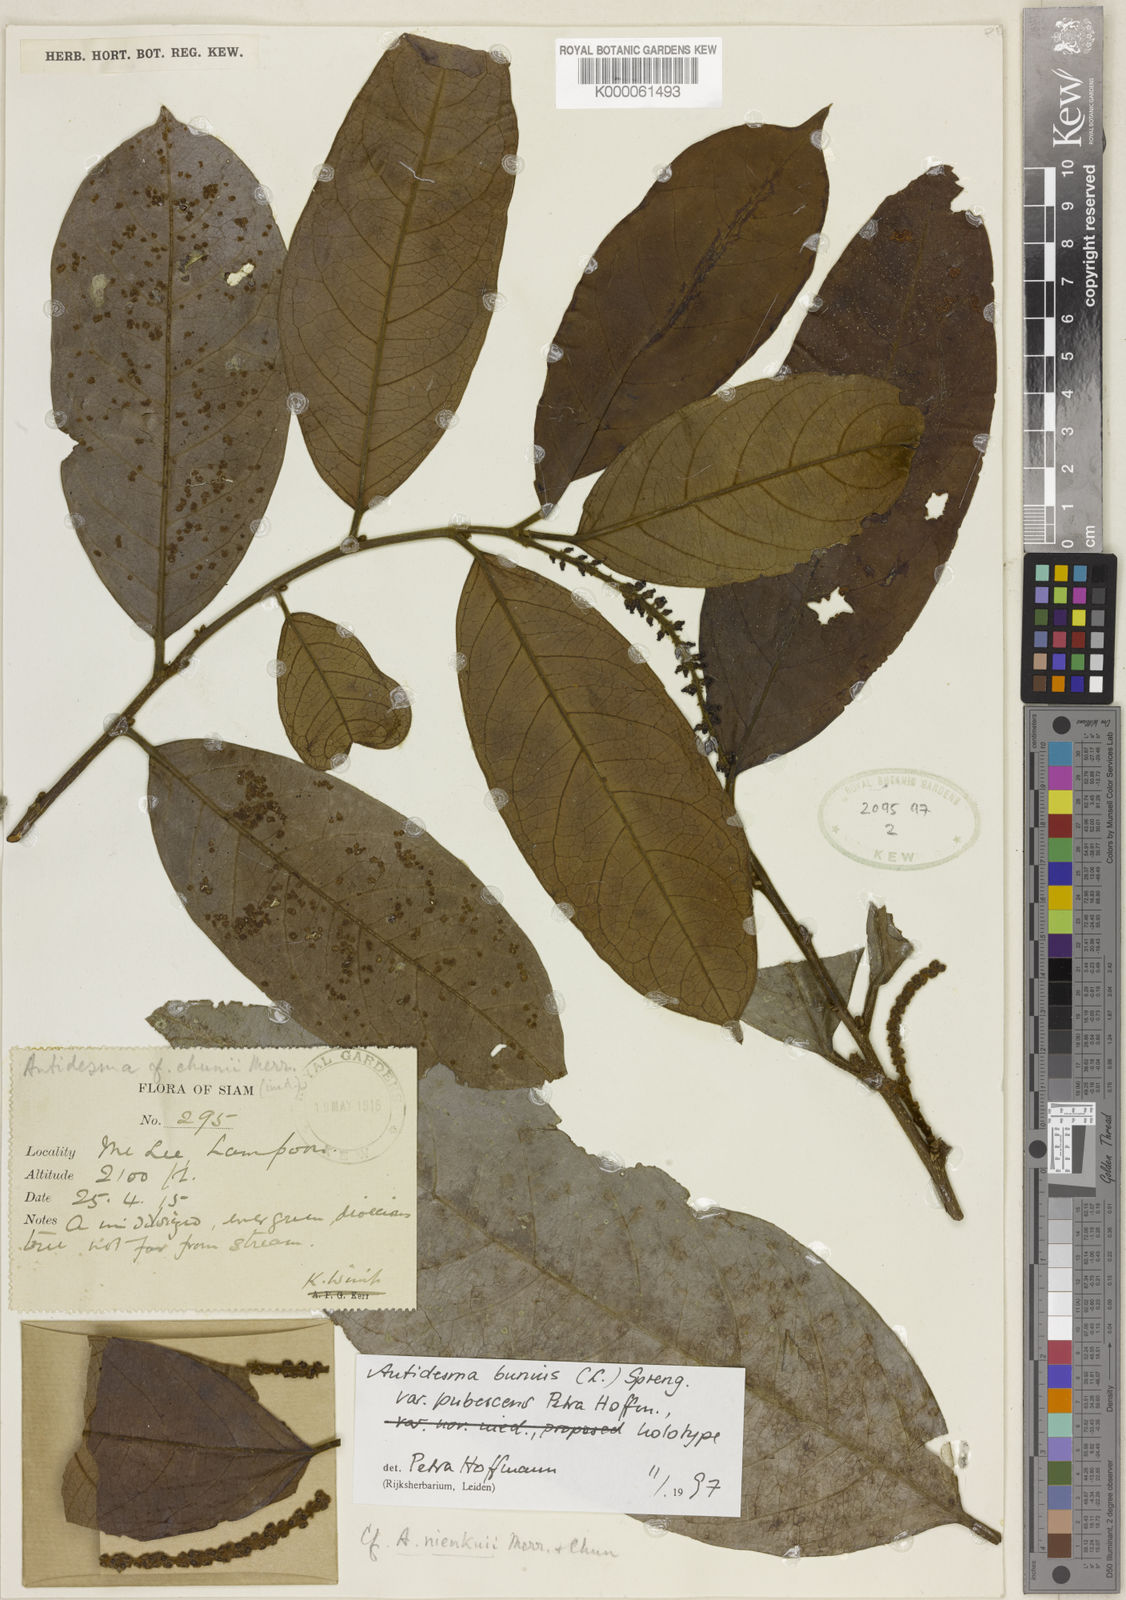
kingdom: Plantae
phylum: Tracheophyta
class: Magnoliopsida
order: Malpighiales
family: Phyllanthaceae
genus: Antidesma
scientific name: Antidesma bunius
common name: Chinese-laurel
